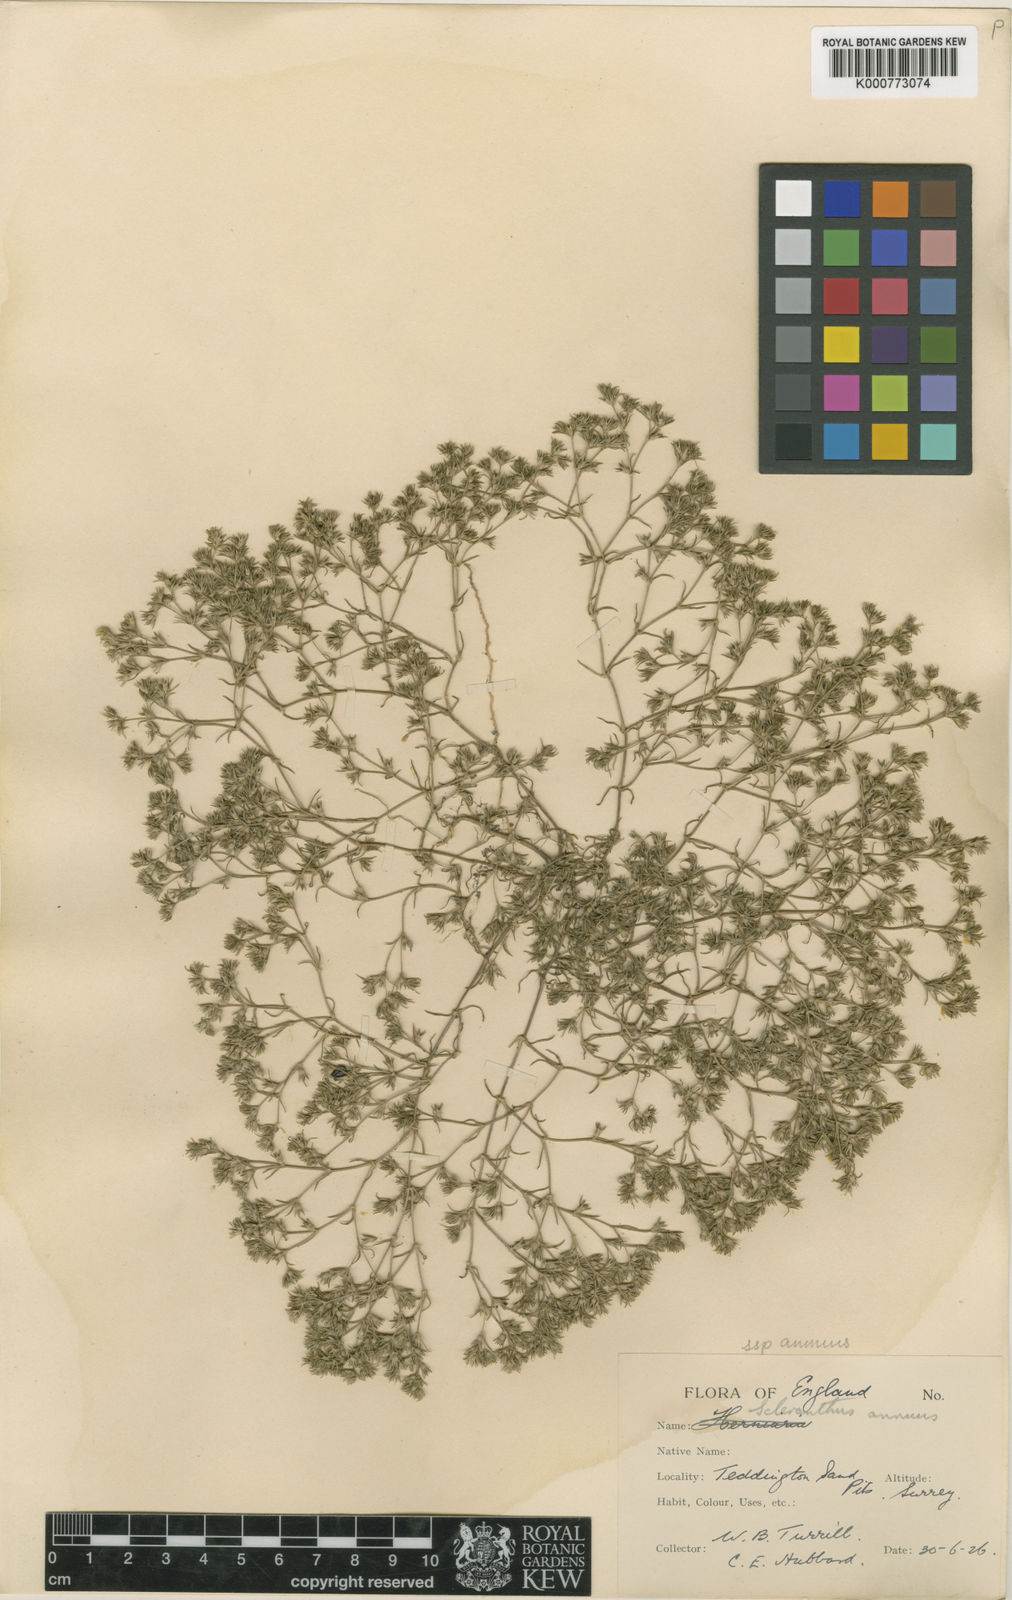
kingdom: Plantae
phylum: Tracheophyta
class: Magnoliopsida
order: Caryophyllales
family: Caryophyllaceae
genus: Scleranthus
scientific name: Scleranthus annuus
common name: Annual knawel
